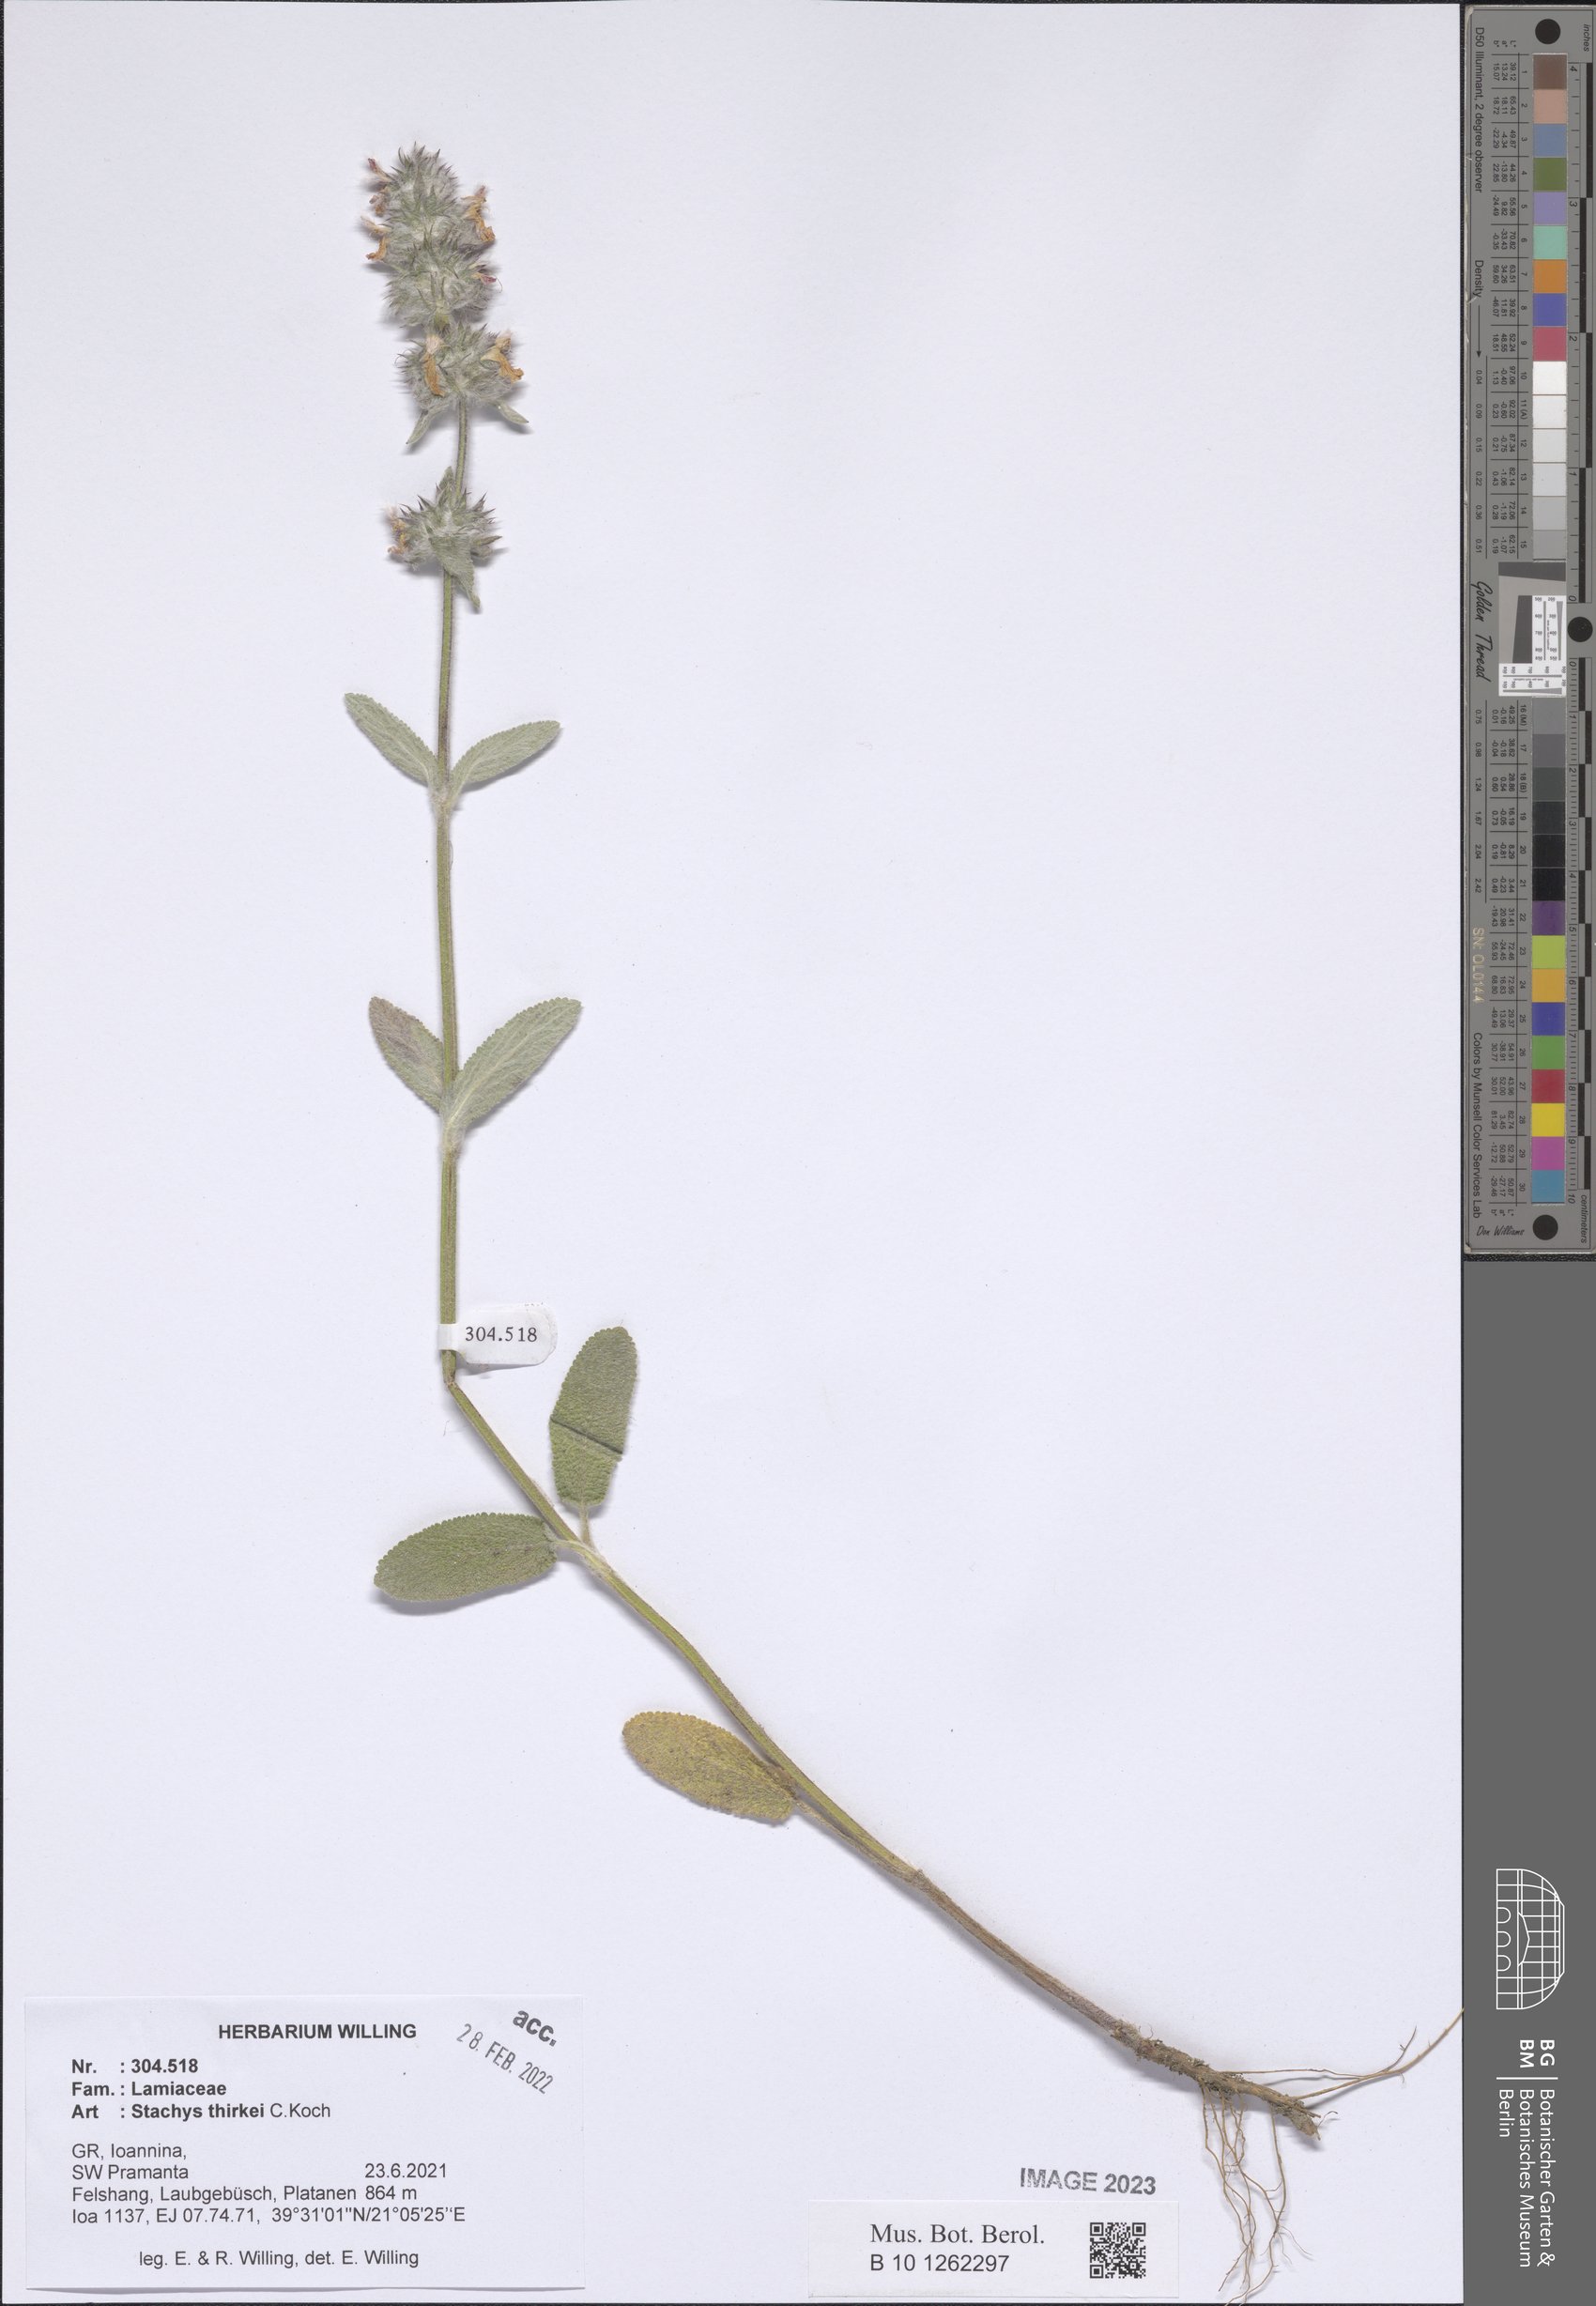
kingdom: Plantae
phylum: Tracheophyta
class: Magnoliopsida
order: Lamiales
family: Lamiaceae
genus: Stachys
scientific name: Stachys thirkei
